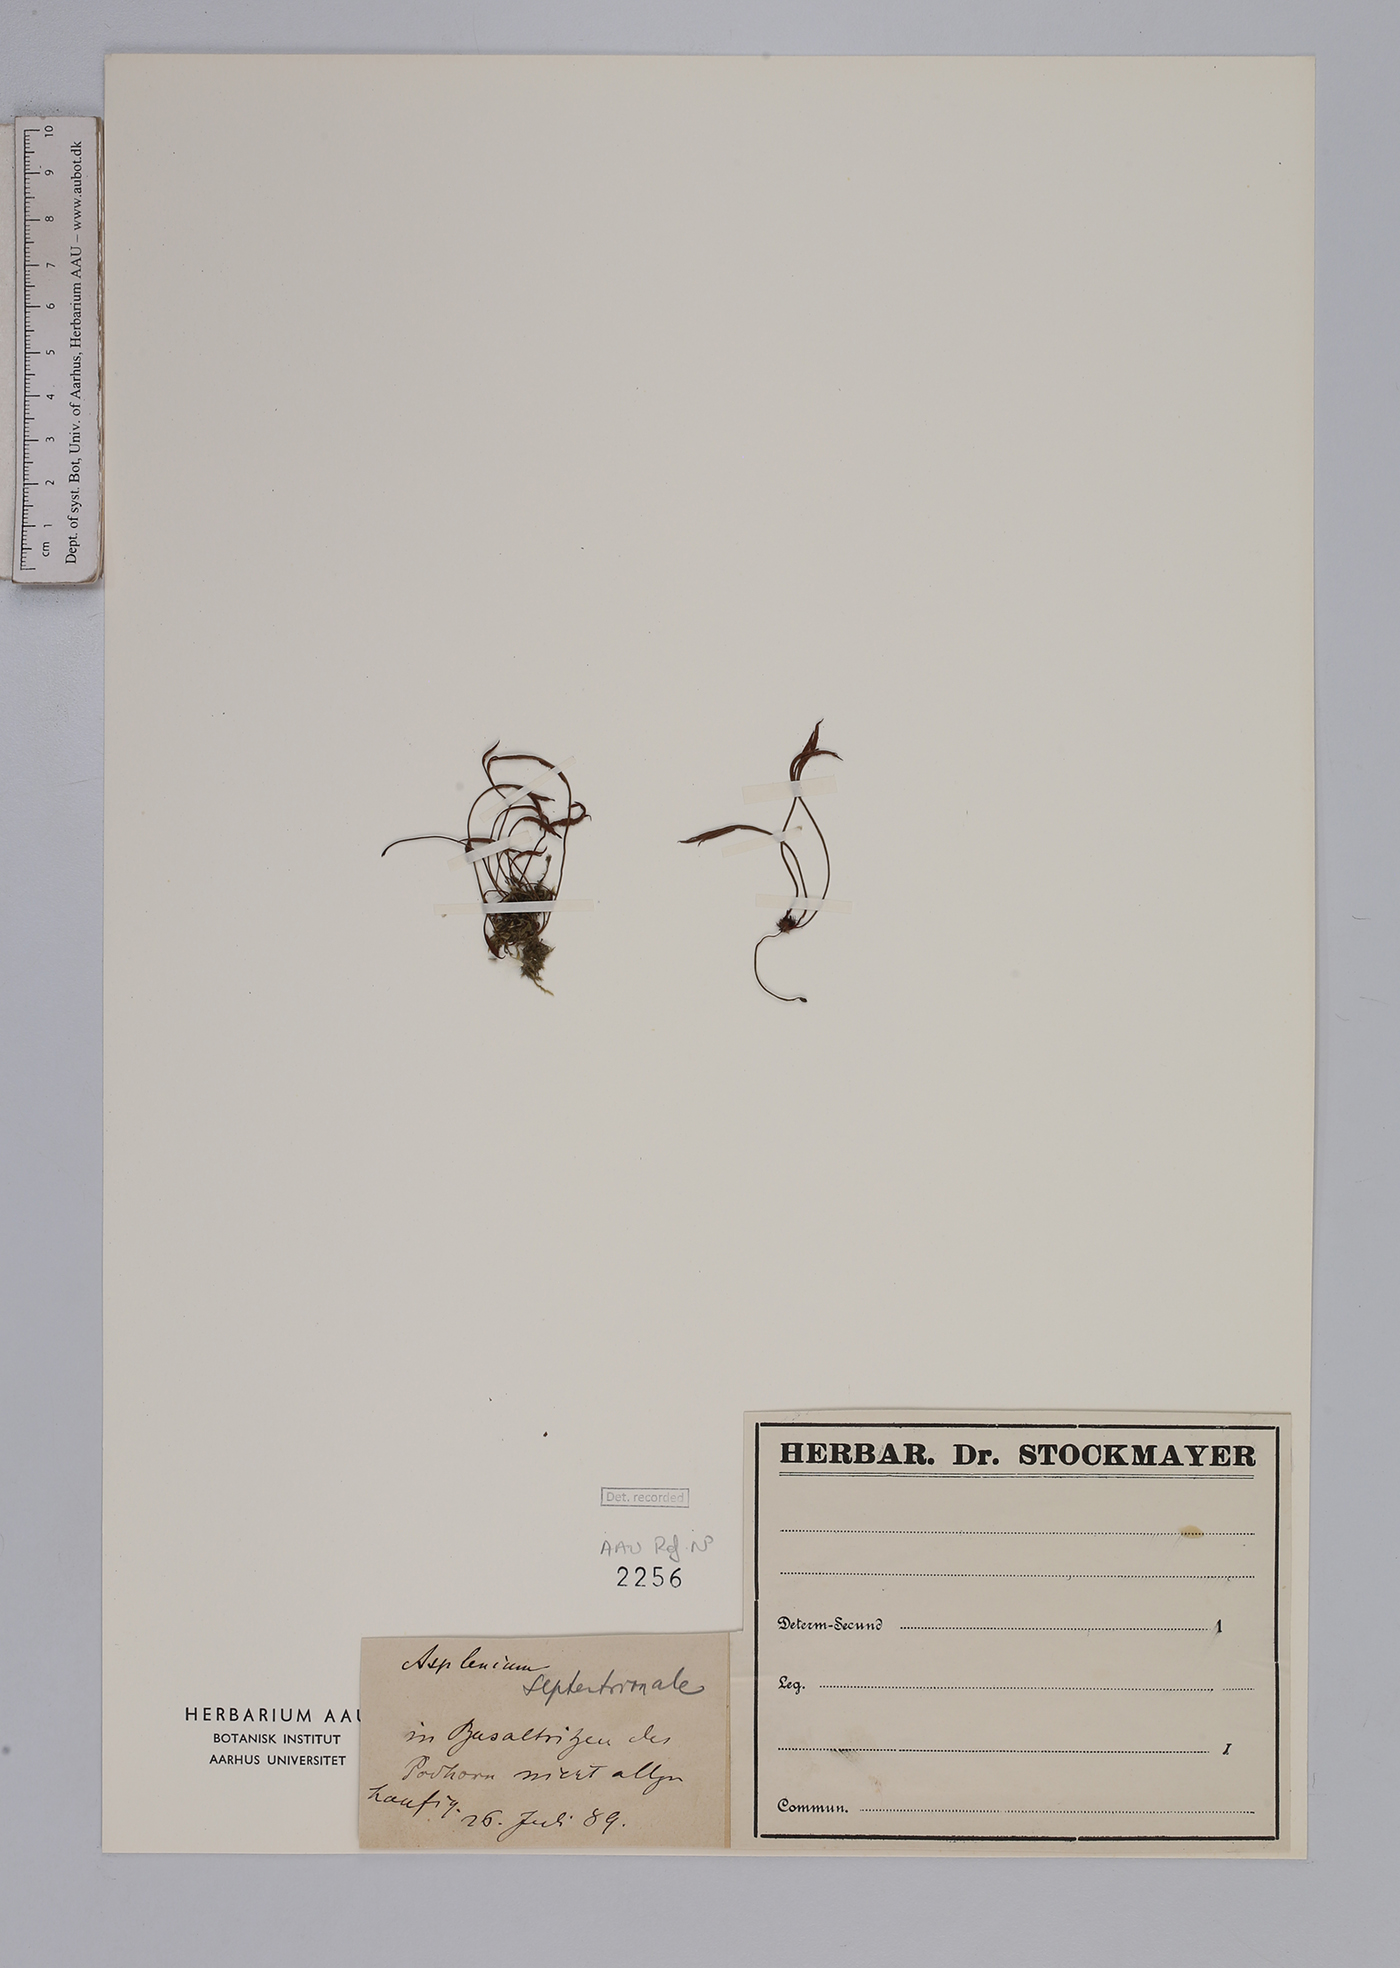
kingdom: Plantae
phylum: Tracheophyta
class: Polypodiopsida
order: Polypodiales
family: Aspleniaceae
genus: Asplenium
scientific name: Asplenium septentrionale
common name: Forked spleenwort
